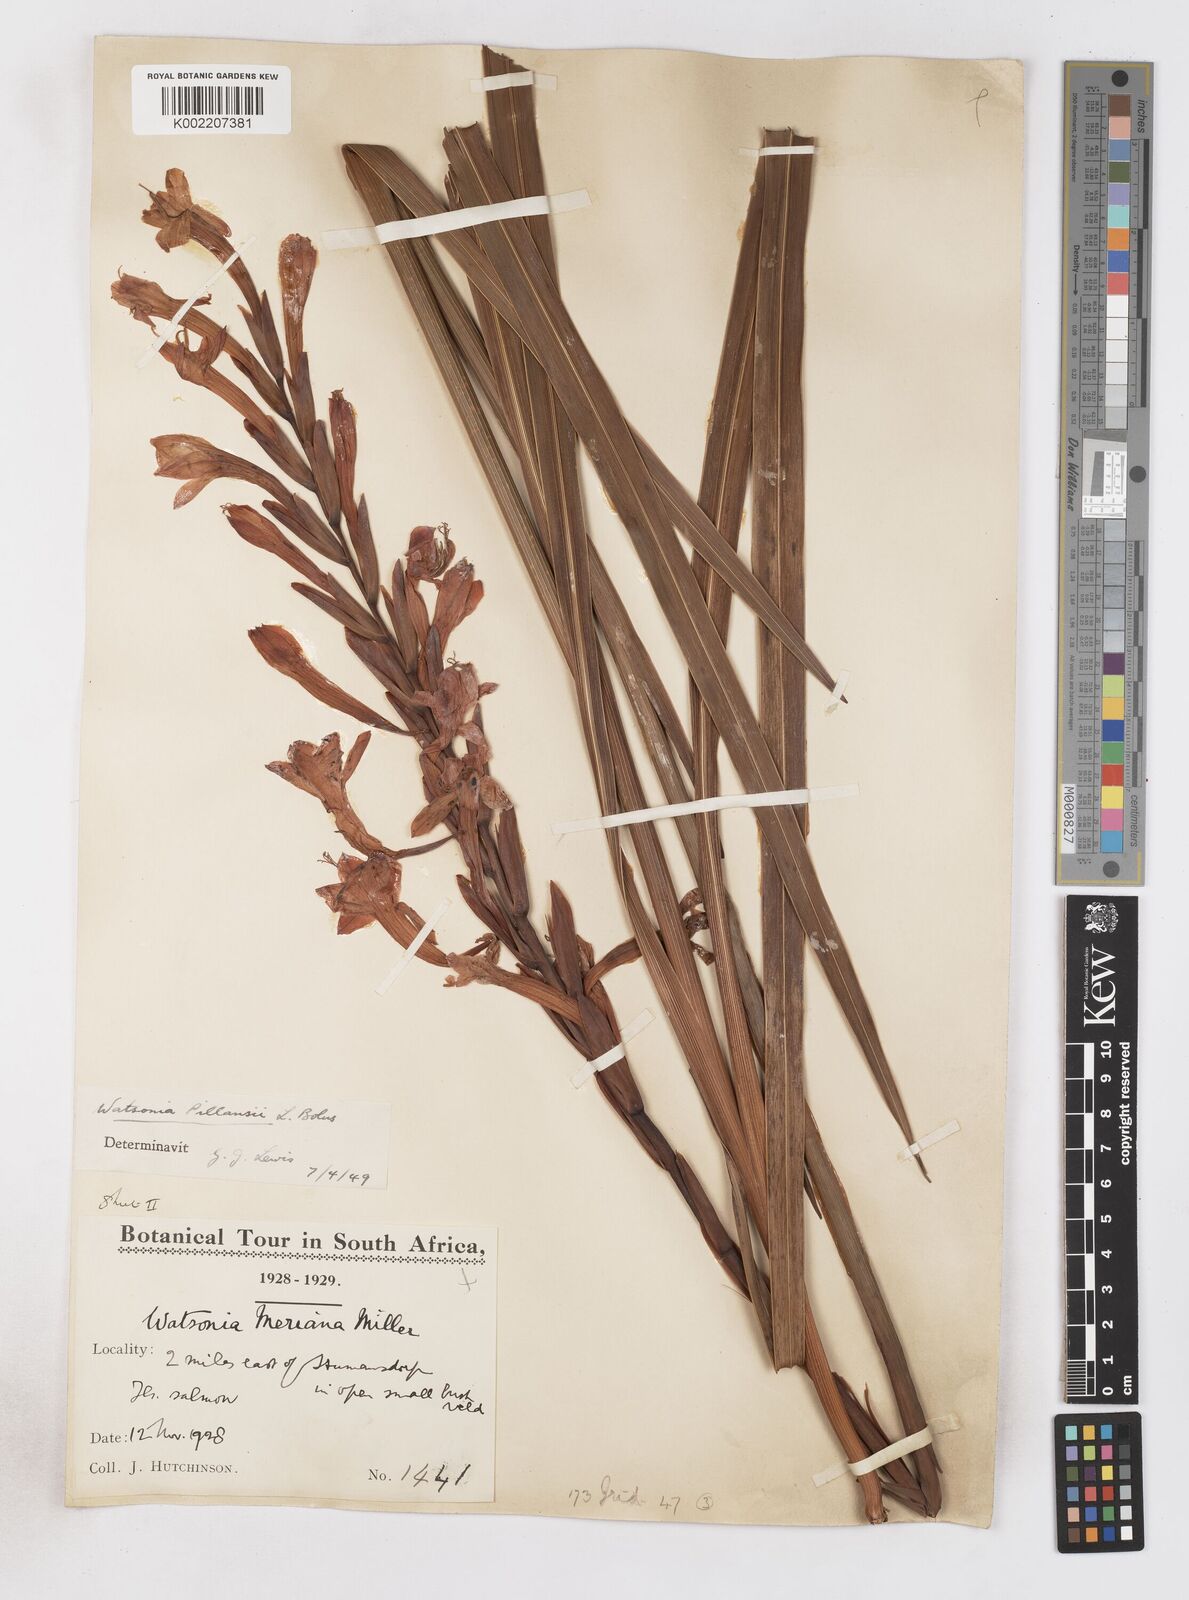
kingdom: Plantae
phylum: Tracheophyta
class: Liliopsida
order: Asparagales
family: Iridaceae
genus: Watsonia
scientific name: Watsonia pillansii
